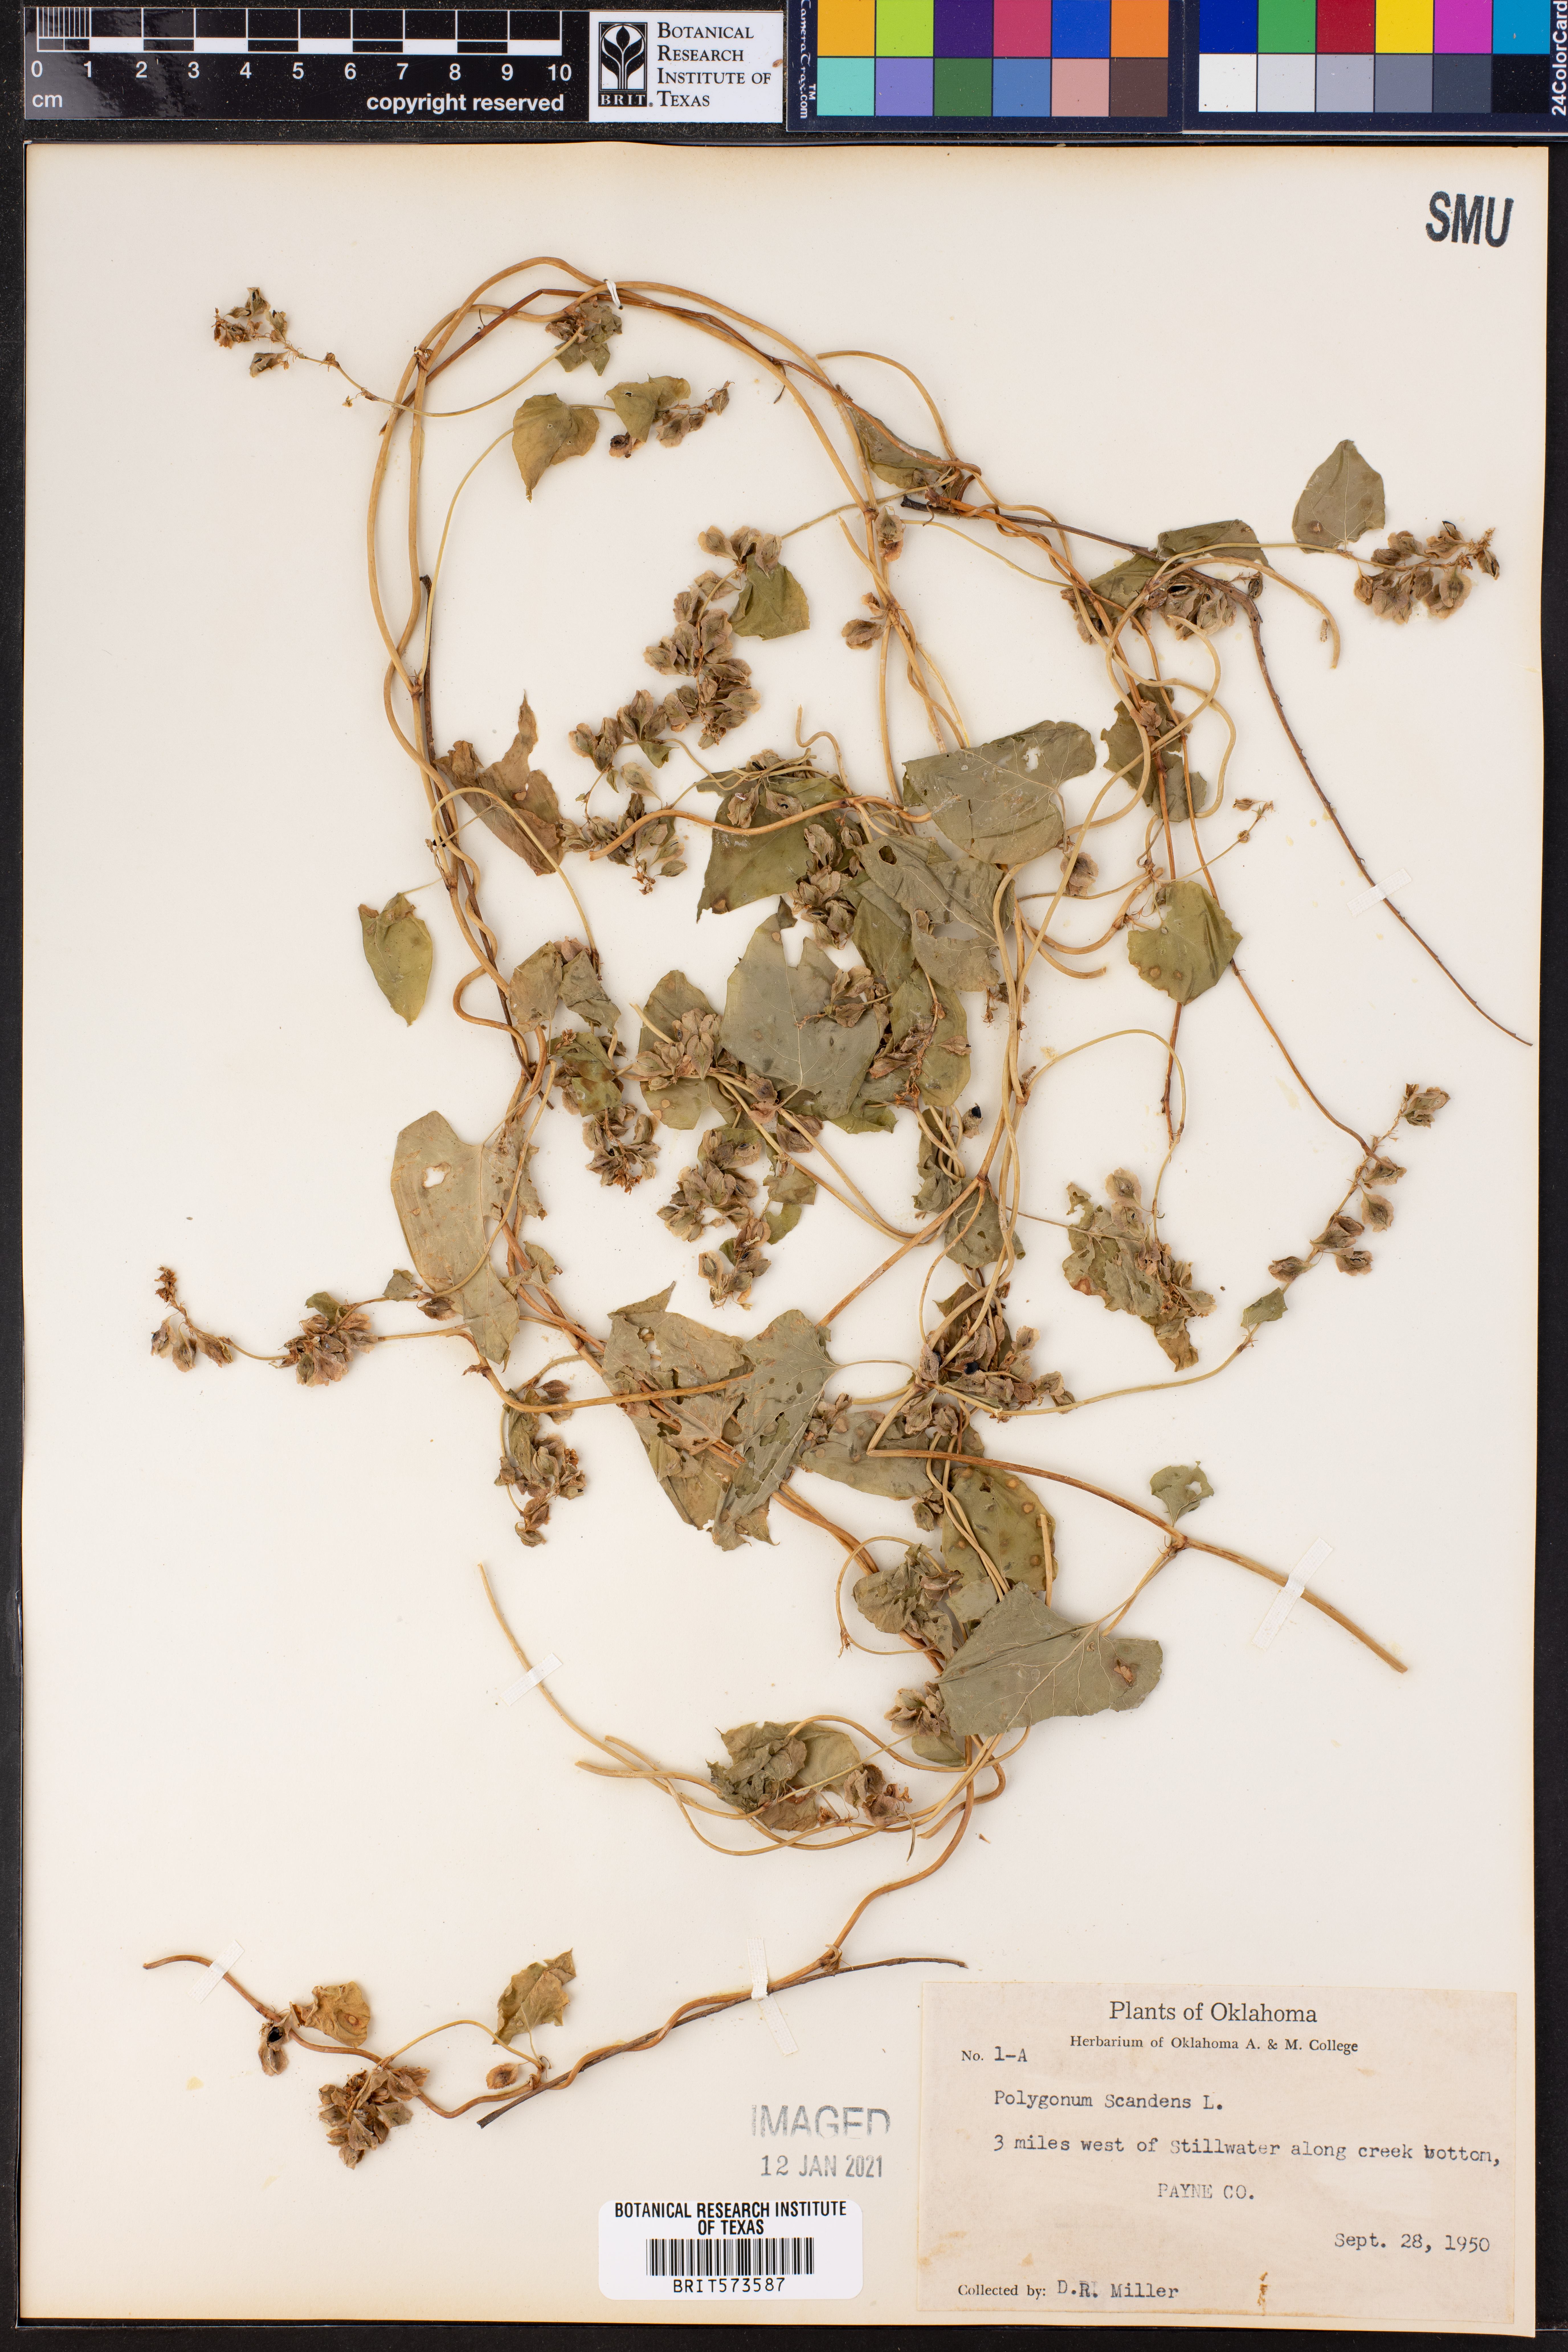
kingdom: Plantae
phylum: Tracheophyta
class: Magnoliopsida
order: Caryophyllales
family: Polygonaceae
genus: Fallopia
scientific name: Fallopia scandens
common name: Climbing false buckwheat
